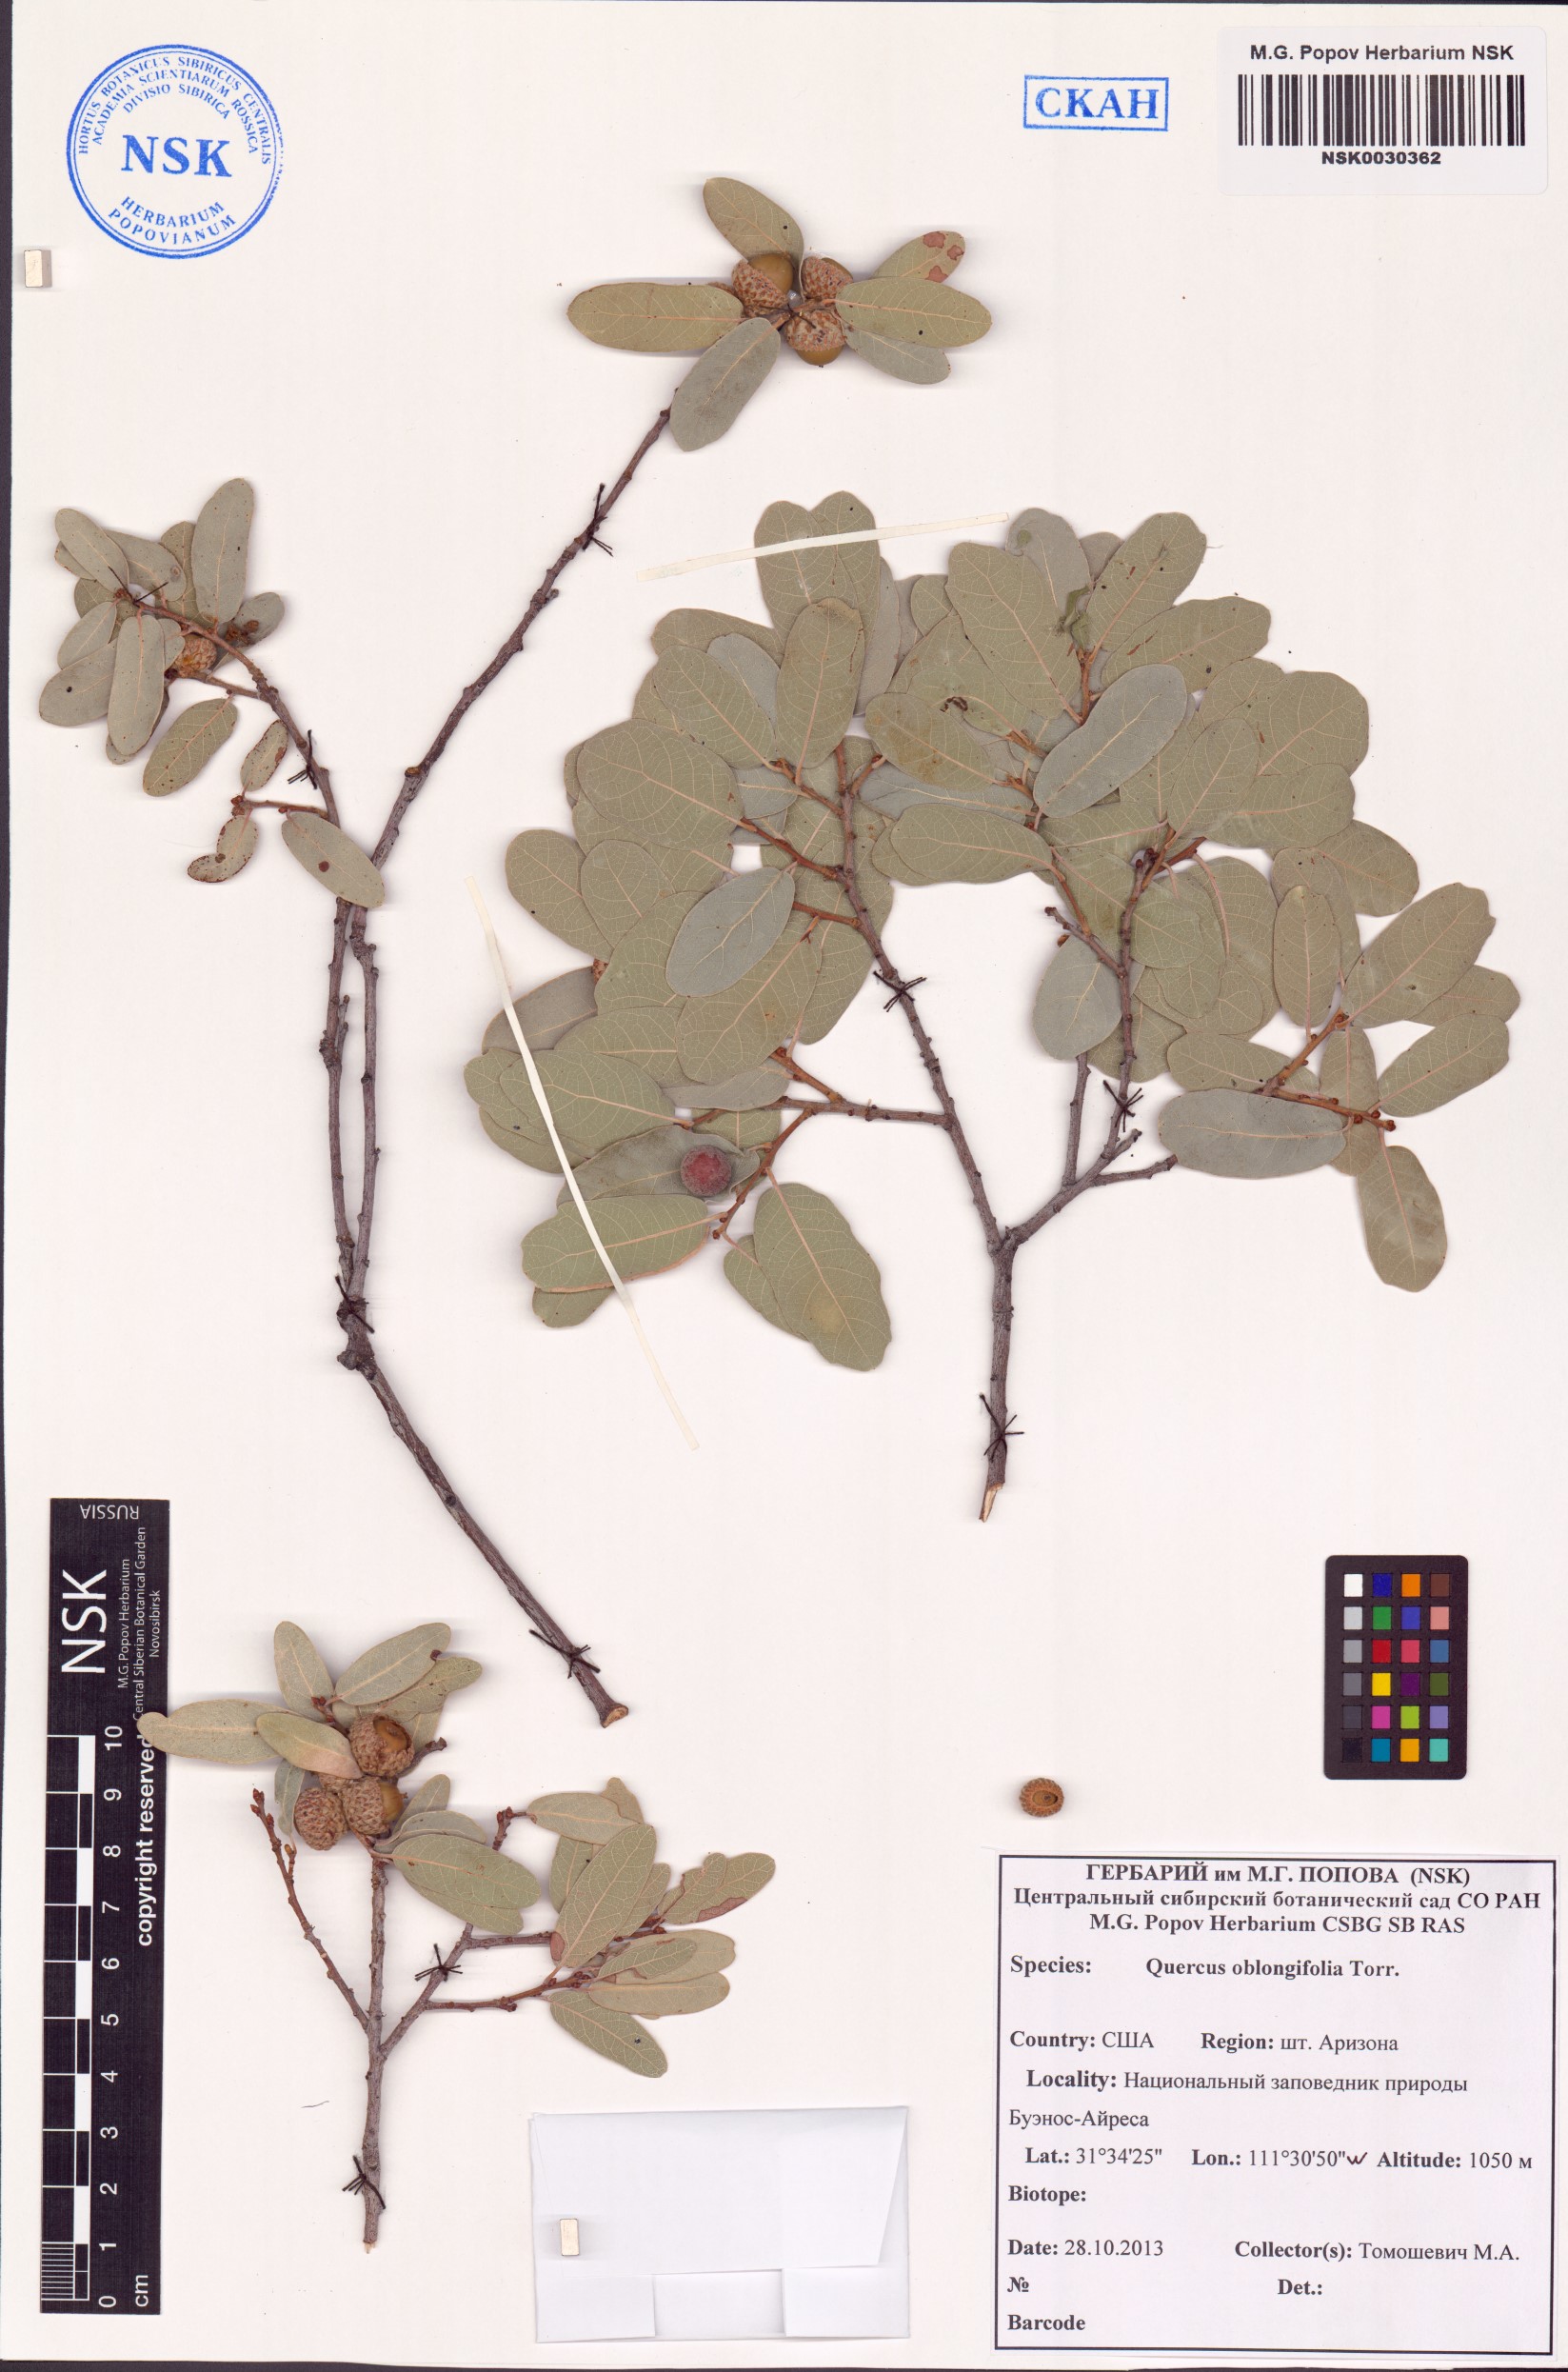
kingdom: Plantae
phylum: Tracheophyta
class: Magnoliopsida
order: Fagales
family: Fagaceae
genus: Quercus
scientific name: Quercus oblongifolia
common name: Mexican blue oak
